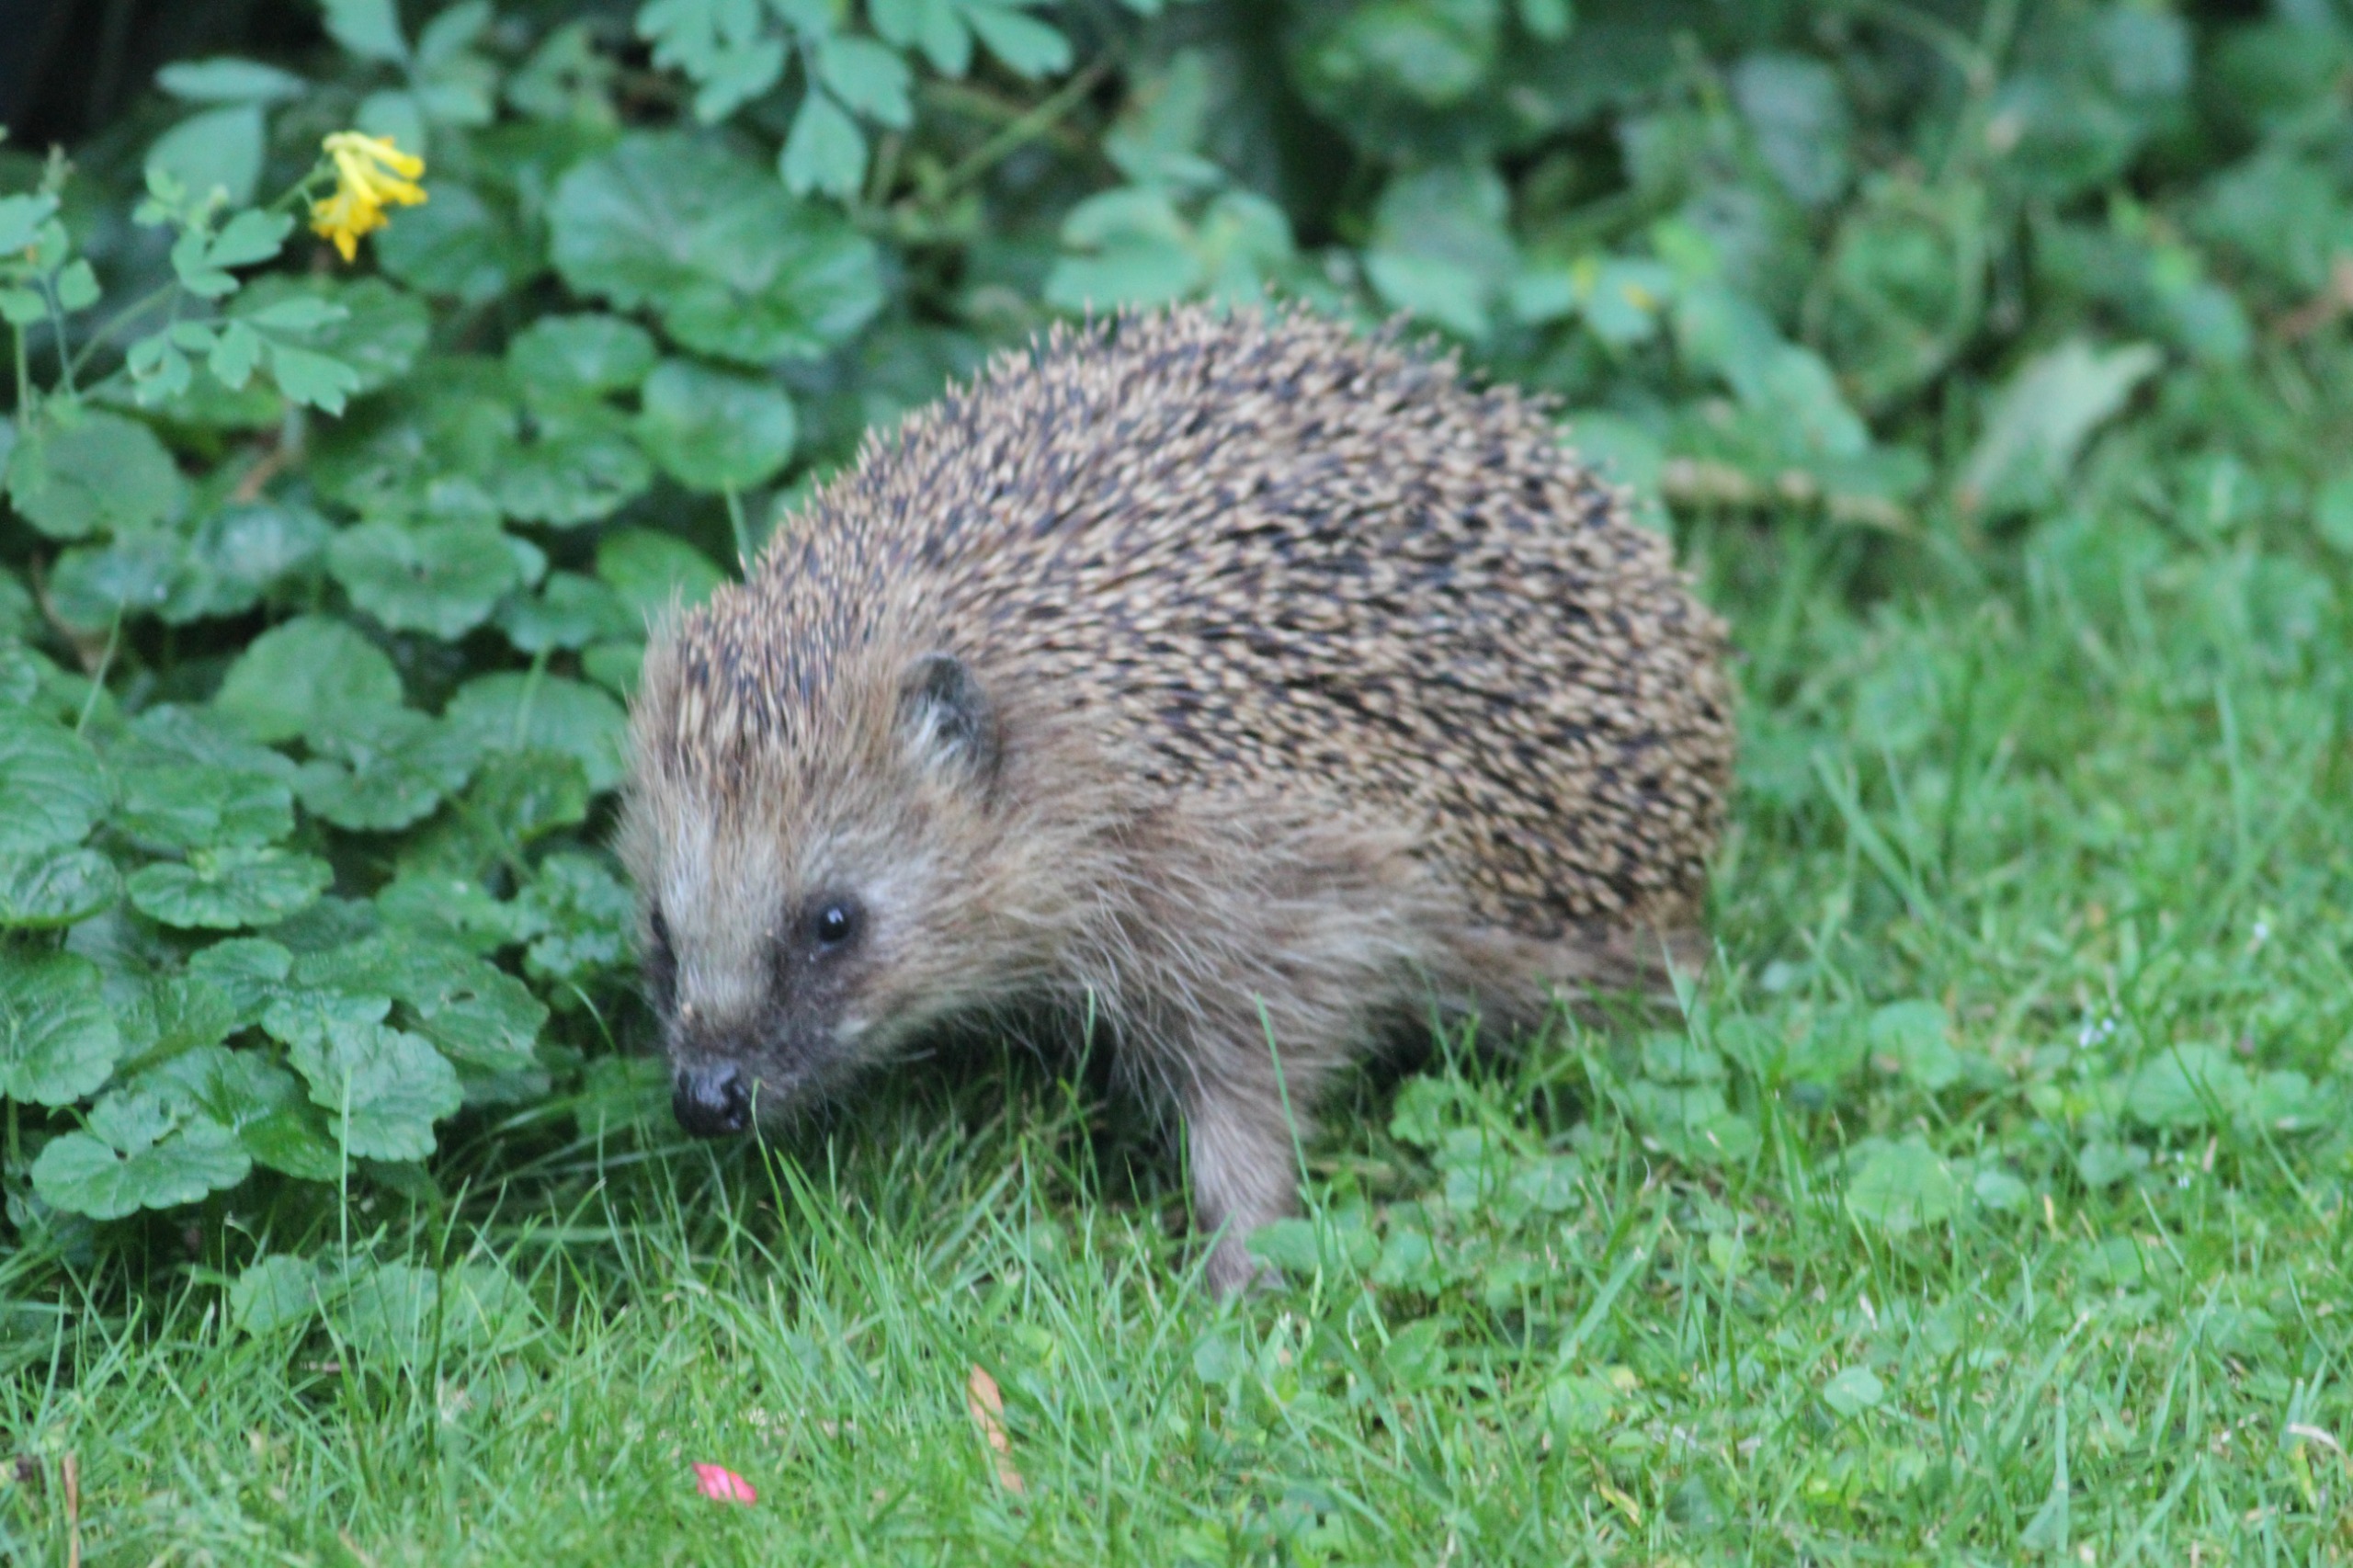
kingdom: Animalia
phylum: Chordata
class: Mammalia
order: Erinaceomorpha
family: Erinaceidae
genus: Erinaceus
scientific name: Erinaceus europaeus
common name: Pindsvin
